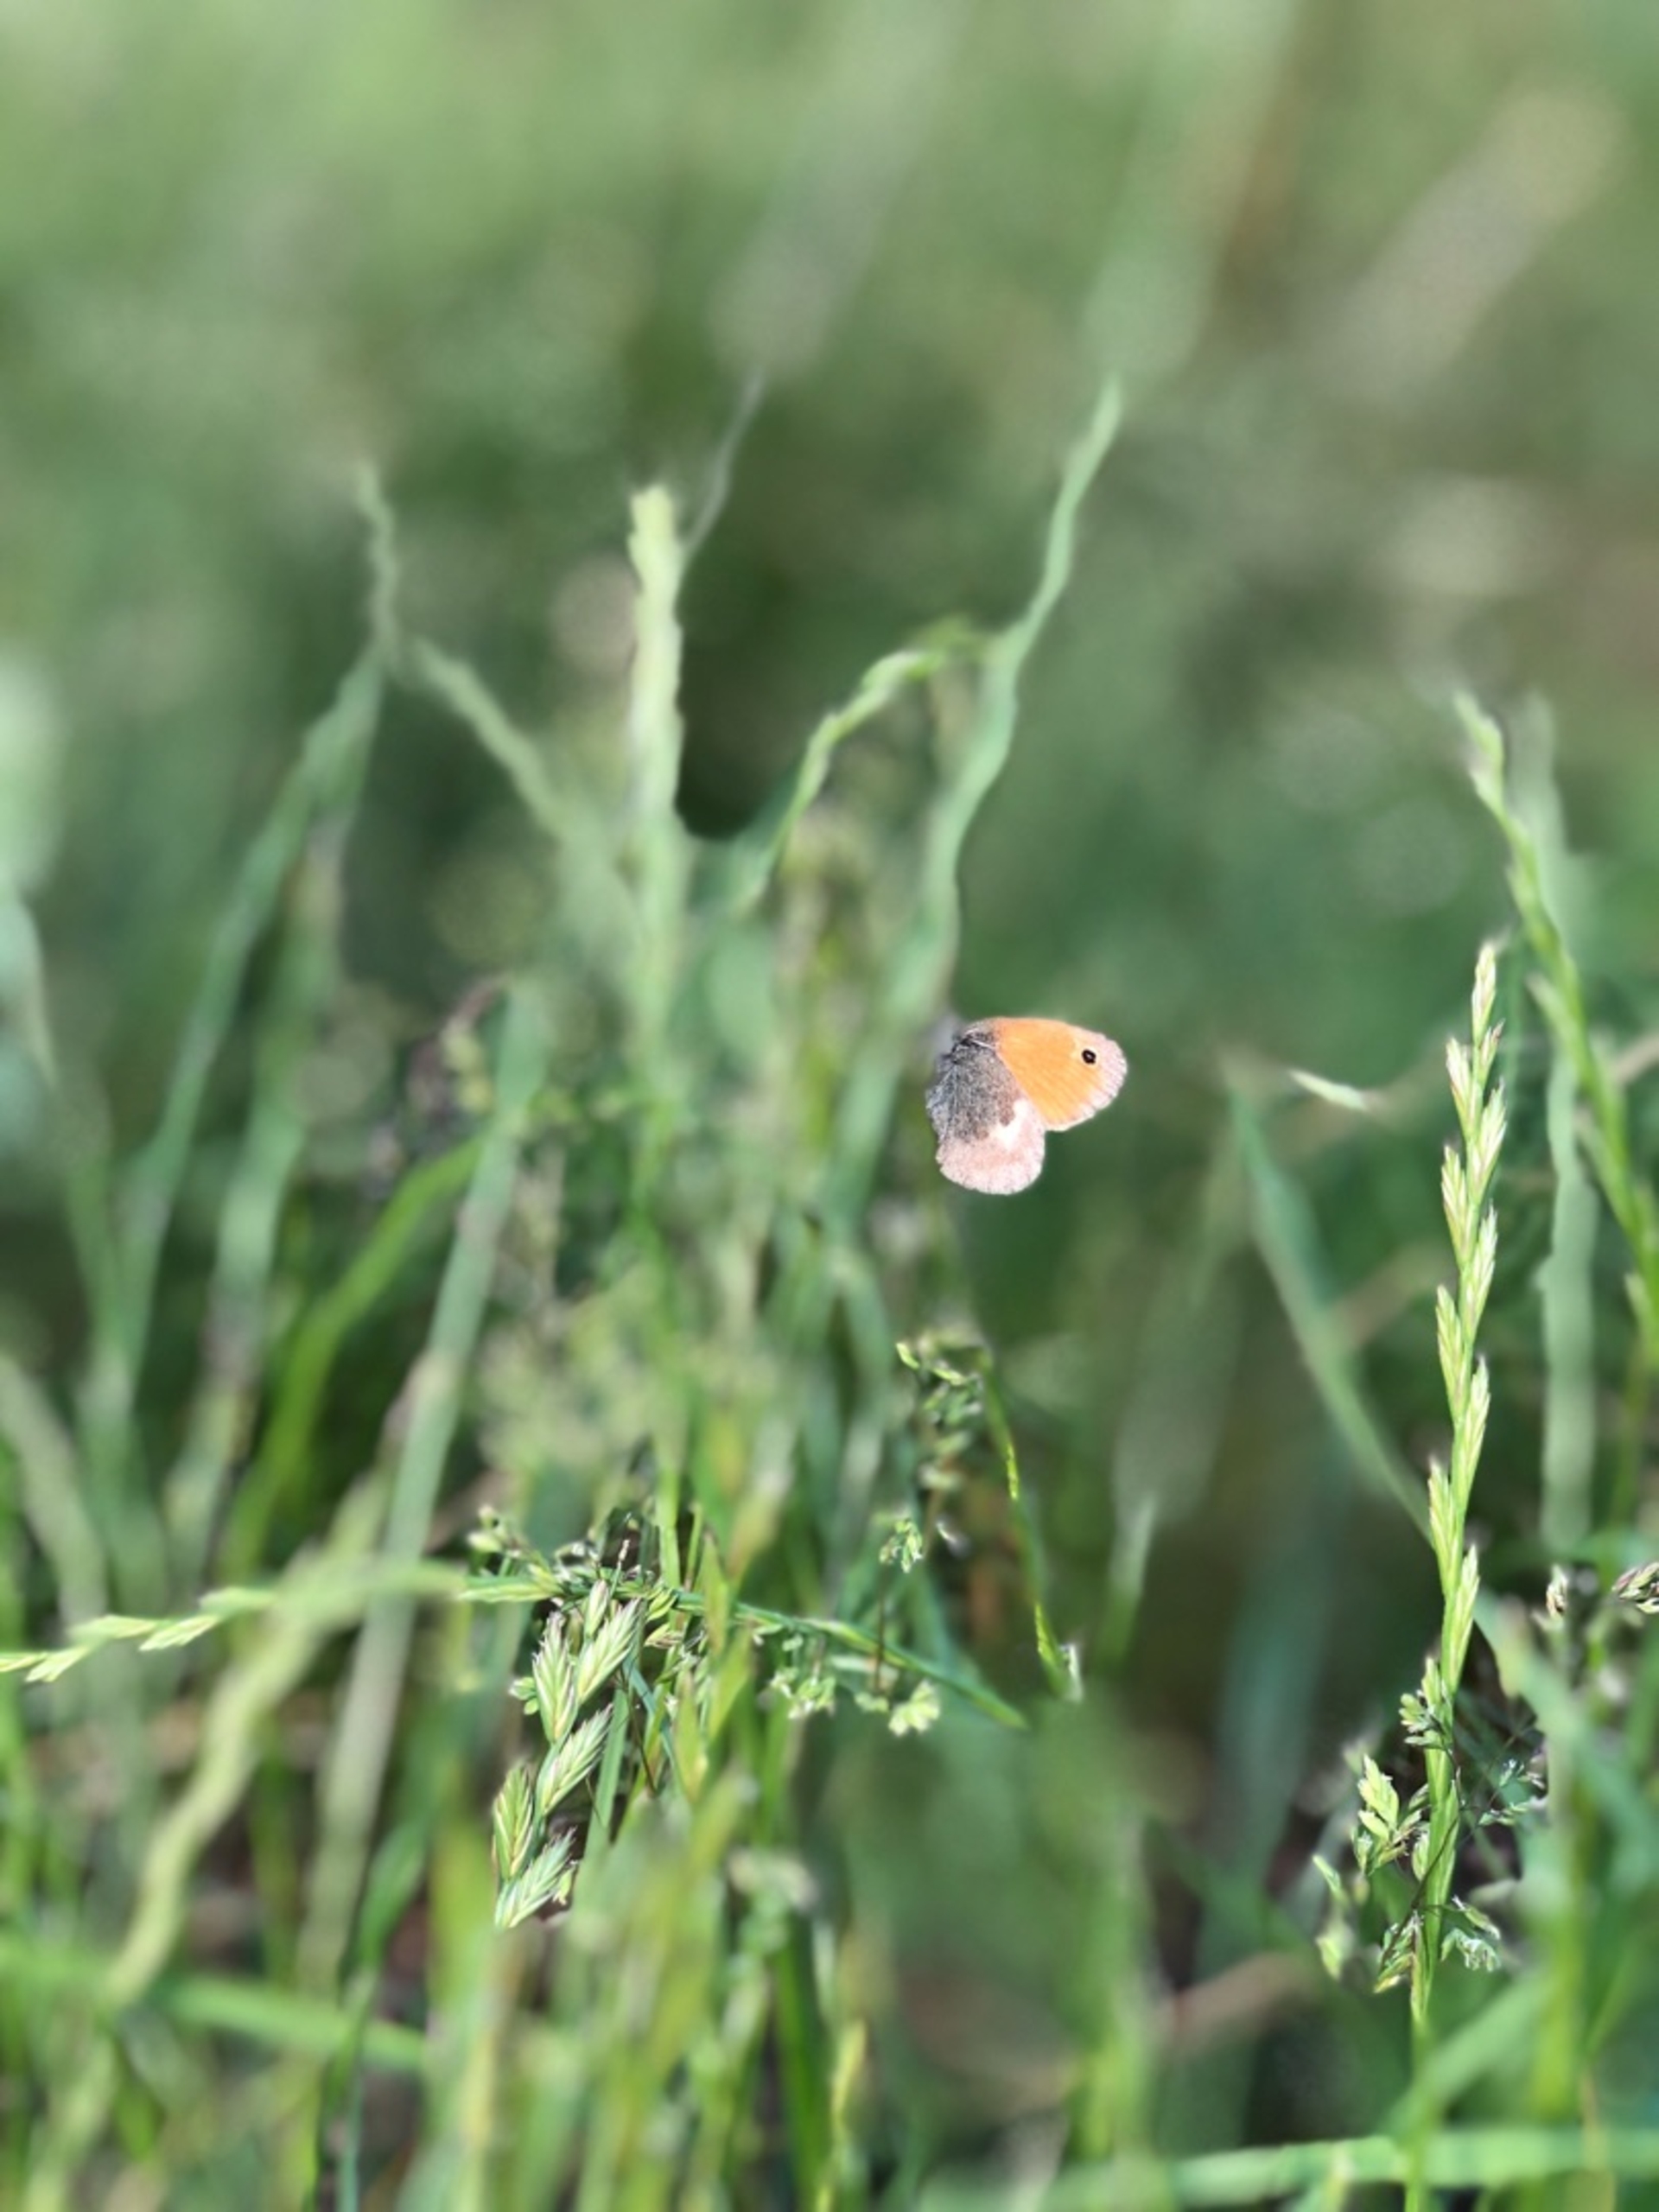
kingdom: Animalia
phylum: Arthropoda
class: Insecta
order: Lepidoptera
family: Nymphalidae
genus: Coenonympha
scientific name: Coenonympha pamphilus
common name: Okkergul randøje
